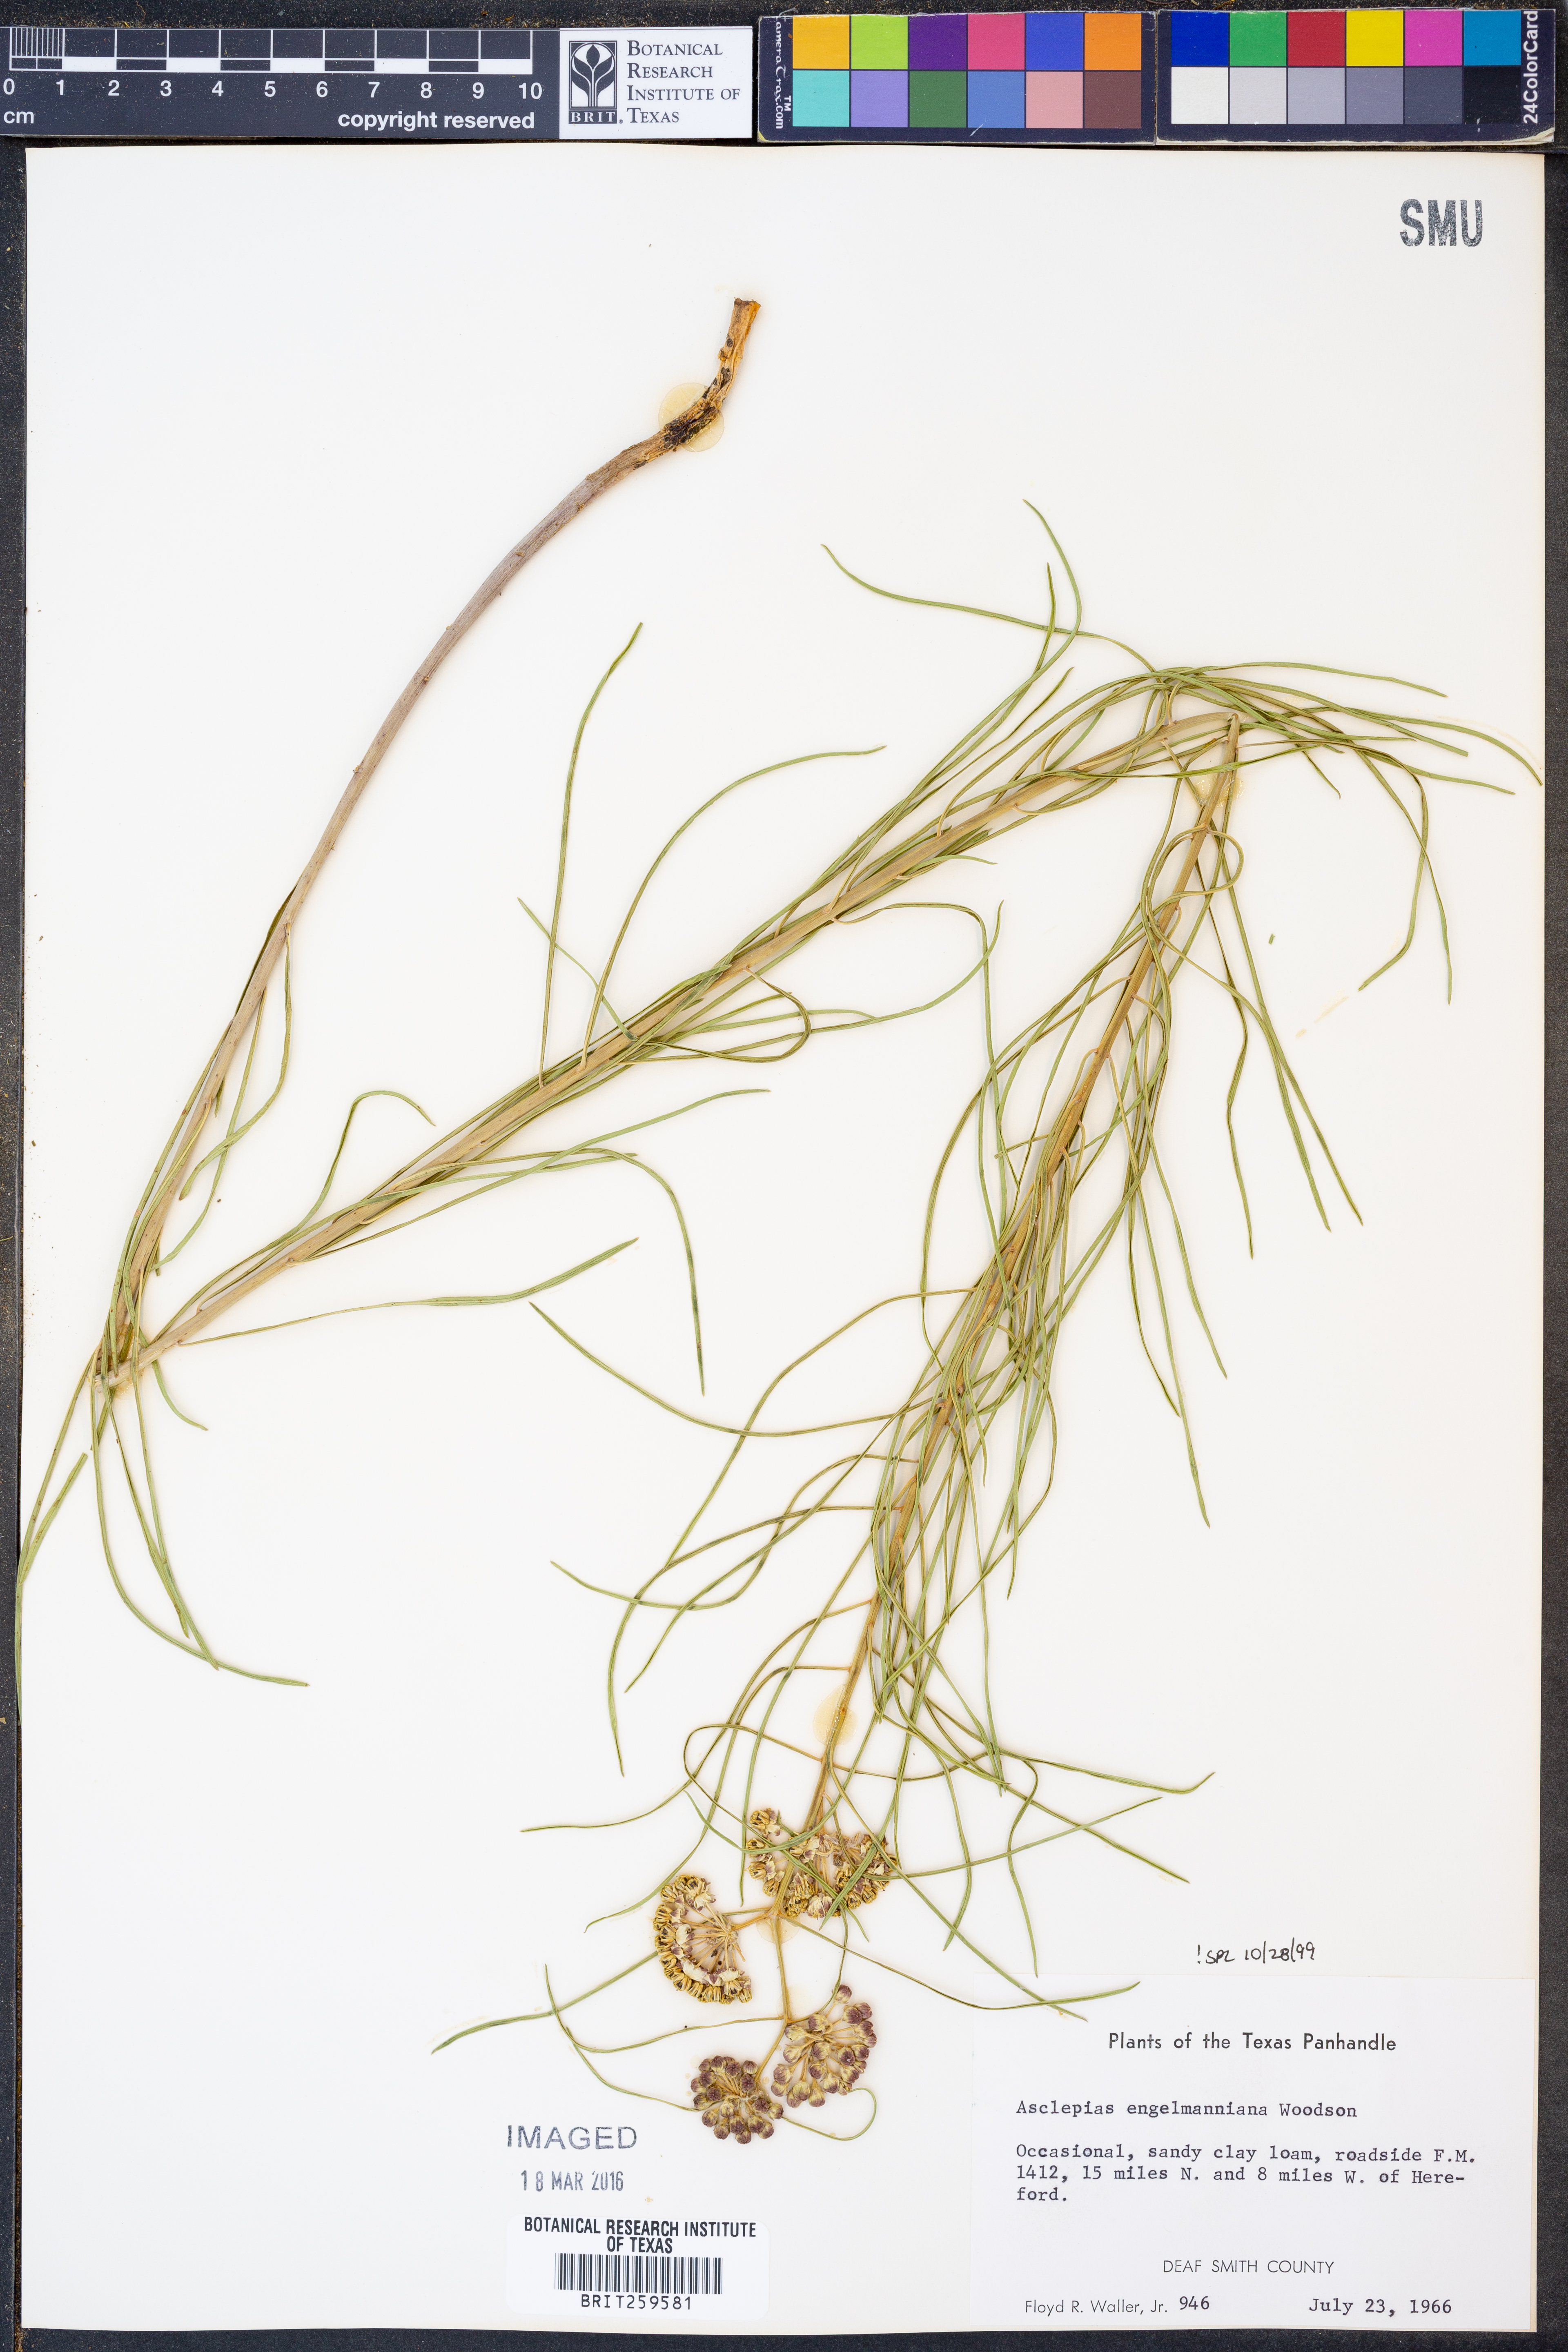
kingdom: Plantae
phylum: Tracheophyta
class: Magnoliopsida
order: Gentianales
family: Apocynaceae
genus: Asclepias
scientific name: Asclepias engelmanniana
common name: Engelmann's milkweed
